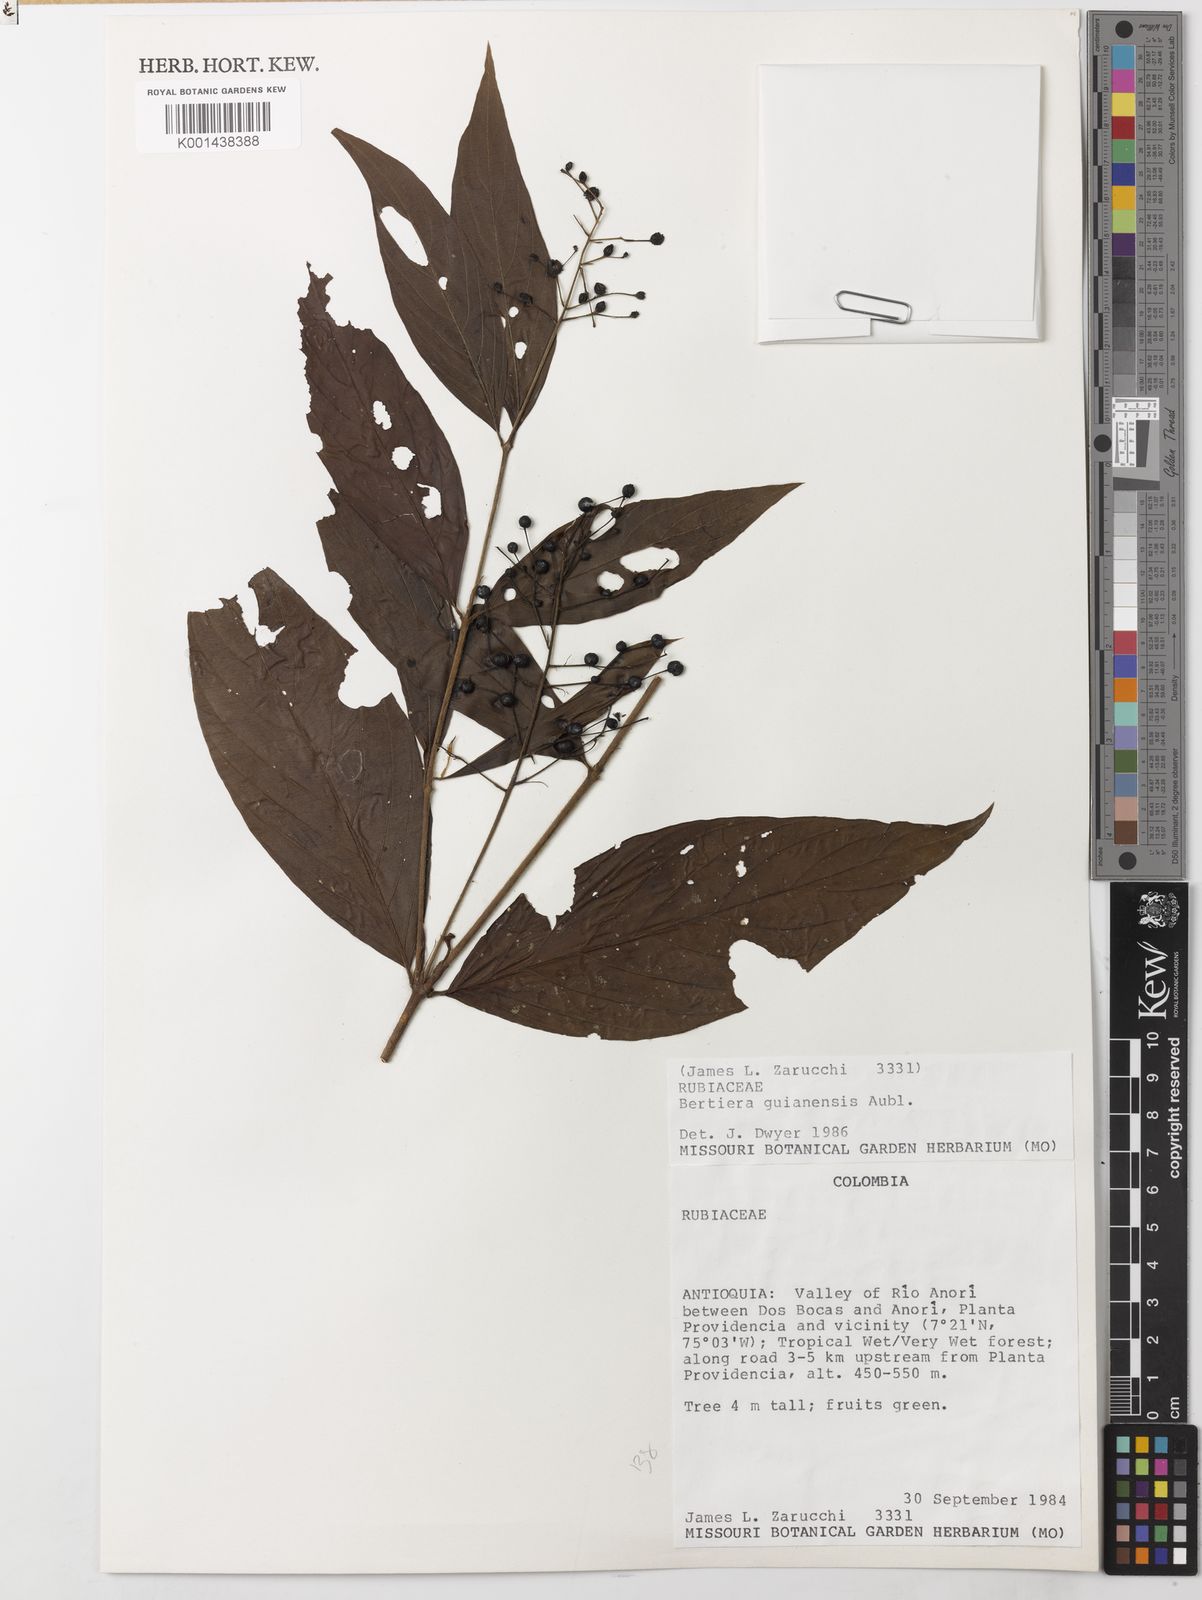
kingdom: Plantae
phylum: Tracheophyta
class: Magnoliopsida
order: Gentianales
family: Rubiaceae
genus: Bertiera
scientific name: Bertiera guianensis
